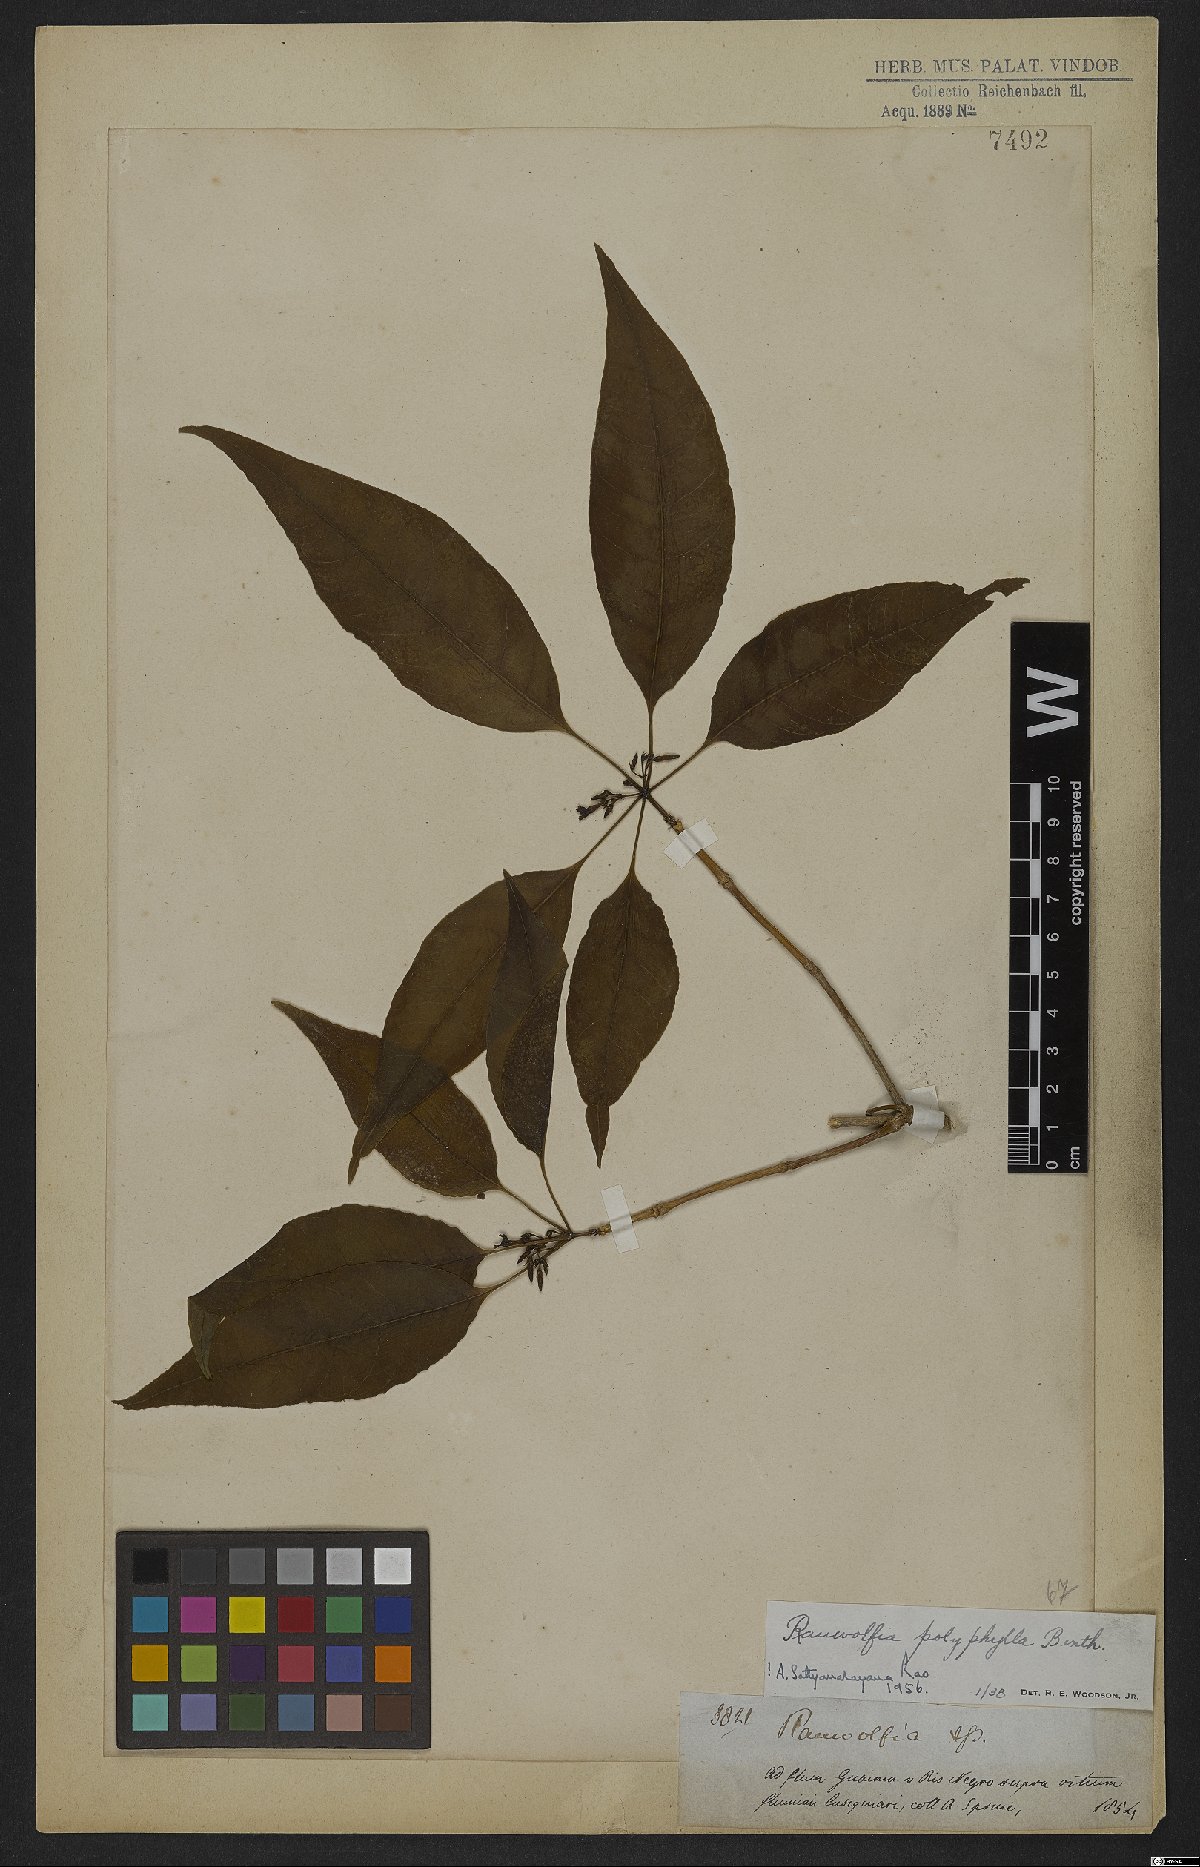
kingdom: Plantae
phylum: Tracheophyta
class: Magnoliopsida
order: Gentianales
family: Apocynaceae
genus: Rauvolfia
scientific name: Rauvolfia polyphylla
